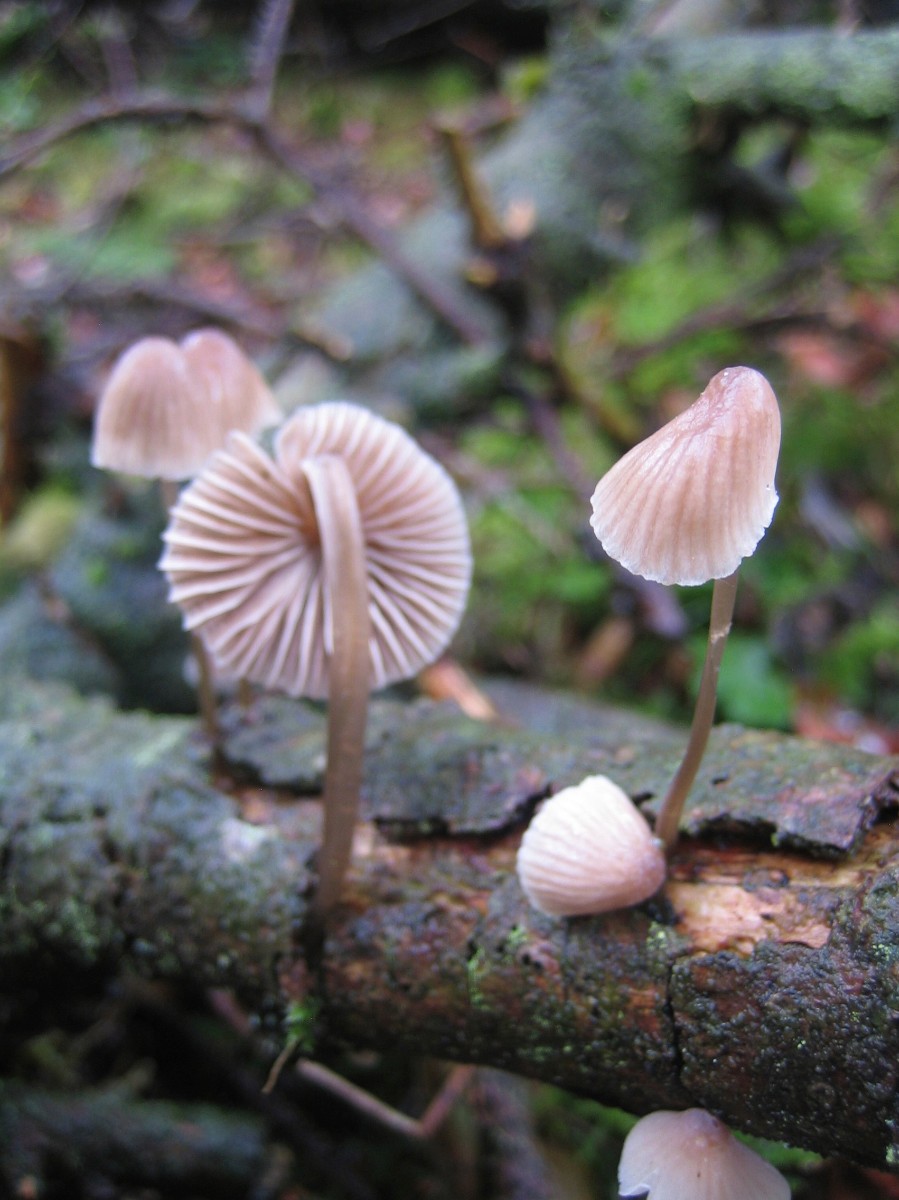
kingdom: Fungi
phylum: Basidiomycota
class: Agaricomycetes
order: Agaricales
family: Mycenaceae
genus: Mycena
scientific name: Mycena metata
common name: rødlig huesvamp
